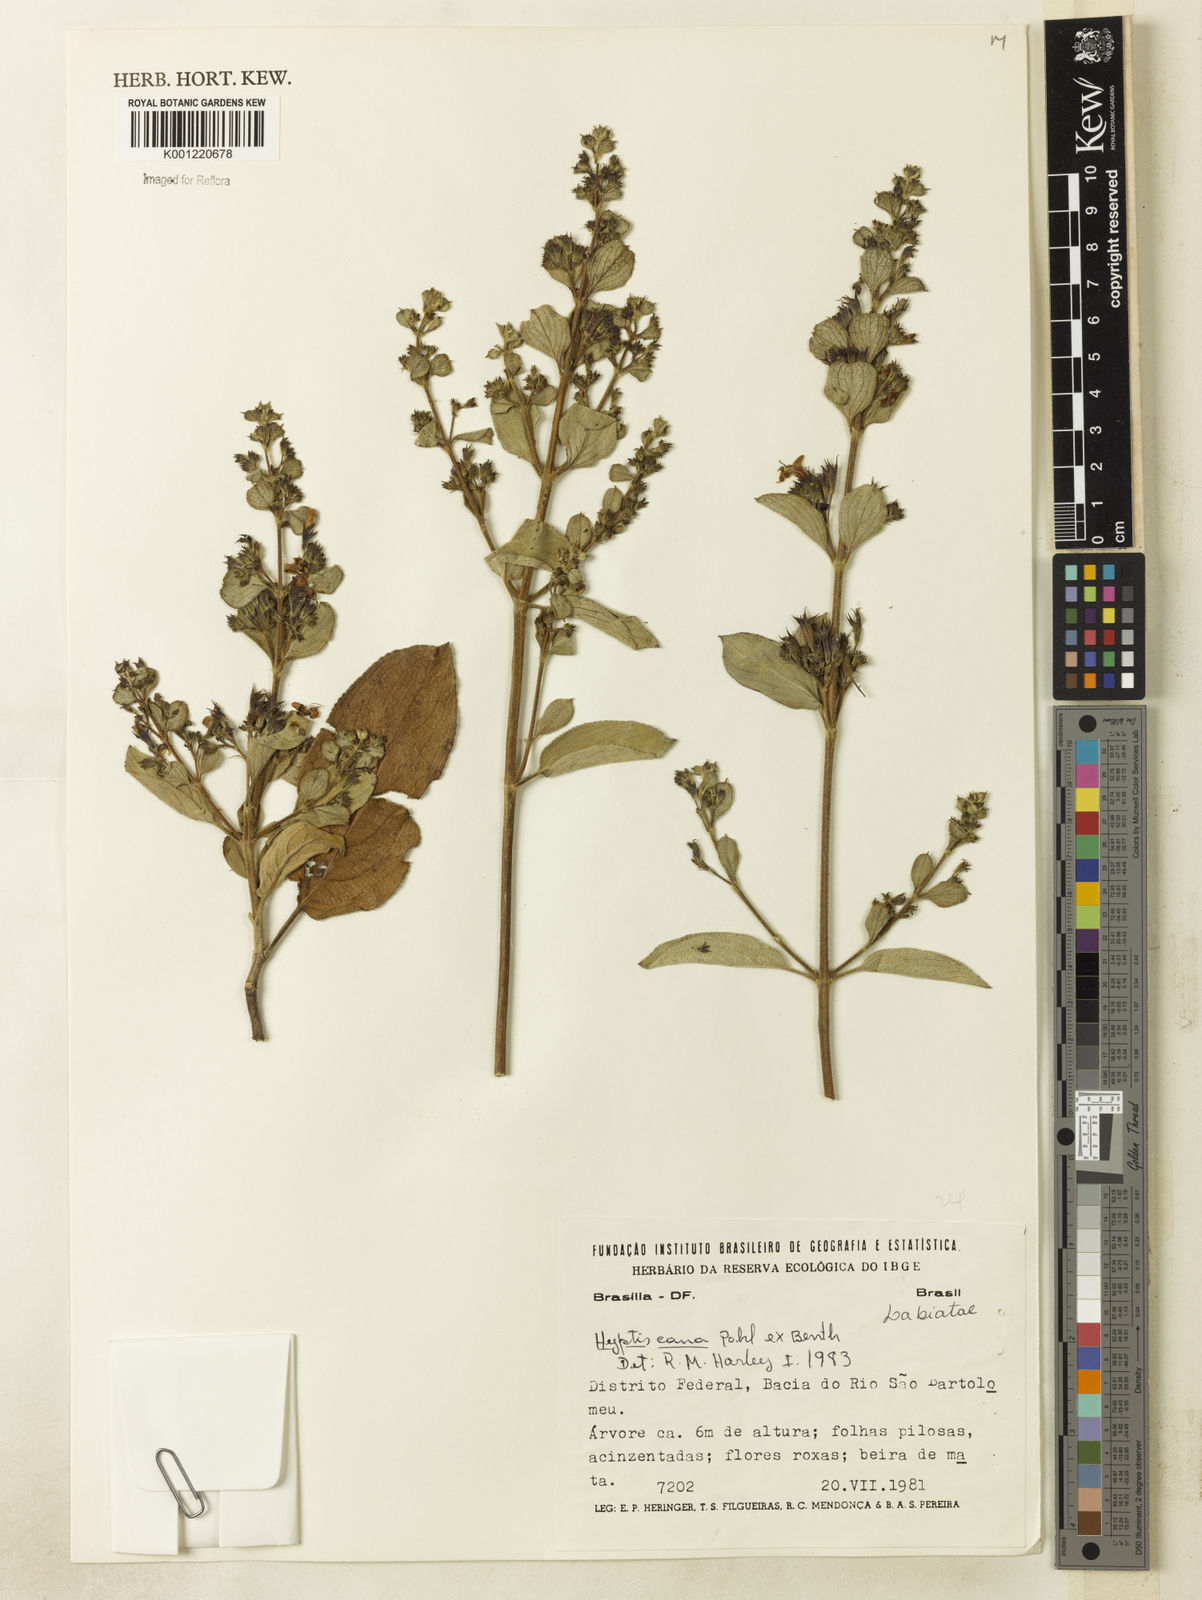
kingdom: Plantae
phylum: Tracheophyta
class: Magnoliopsida
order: Lamiales
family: Lamiaceae
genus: Hyptidendron
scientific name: Hyptidendron canum
